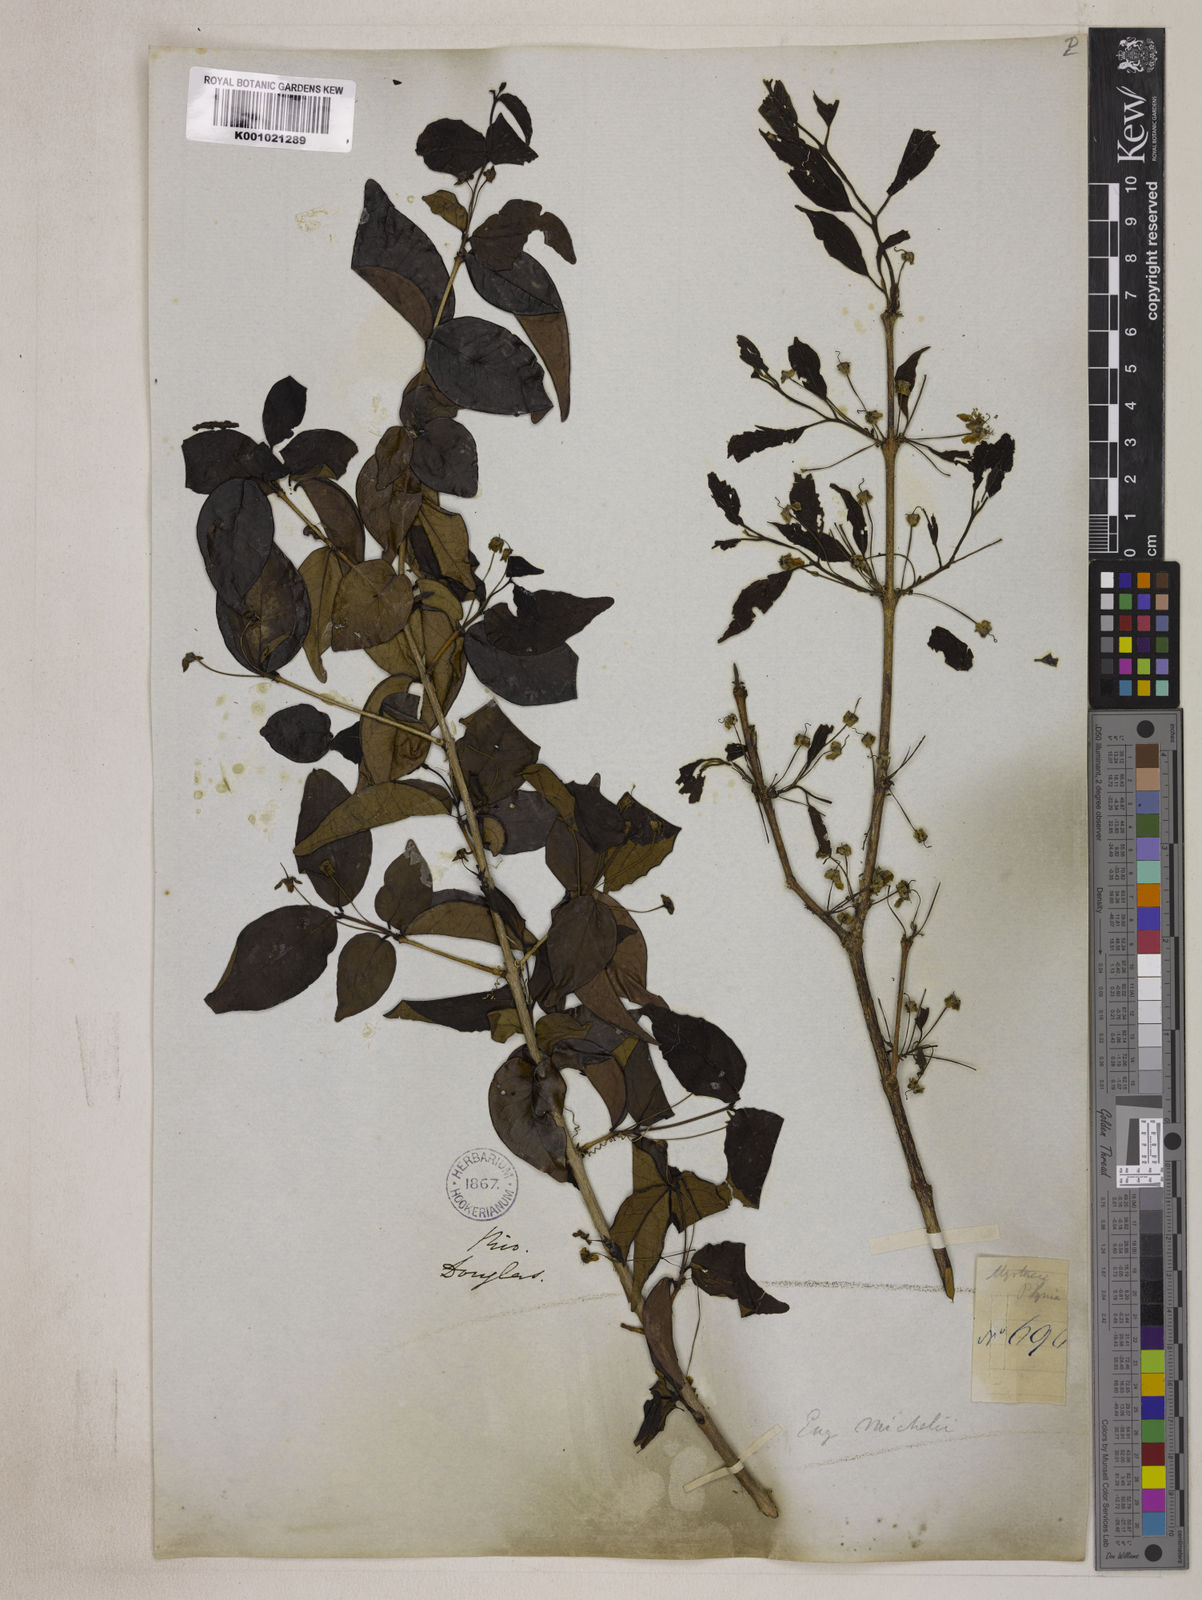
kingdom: Plantae
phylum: Tracheophyta
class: Magnoliopsida
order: Myrtales
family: Myrtaceae
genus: Eugenia
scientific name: Eugenia uniflora
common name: Surinam cherry
